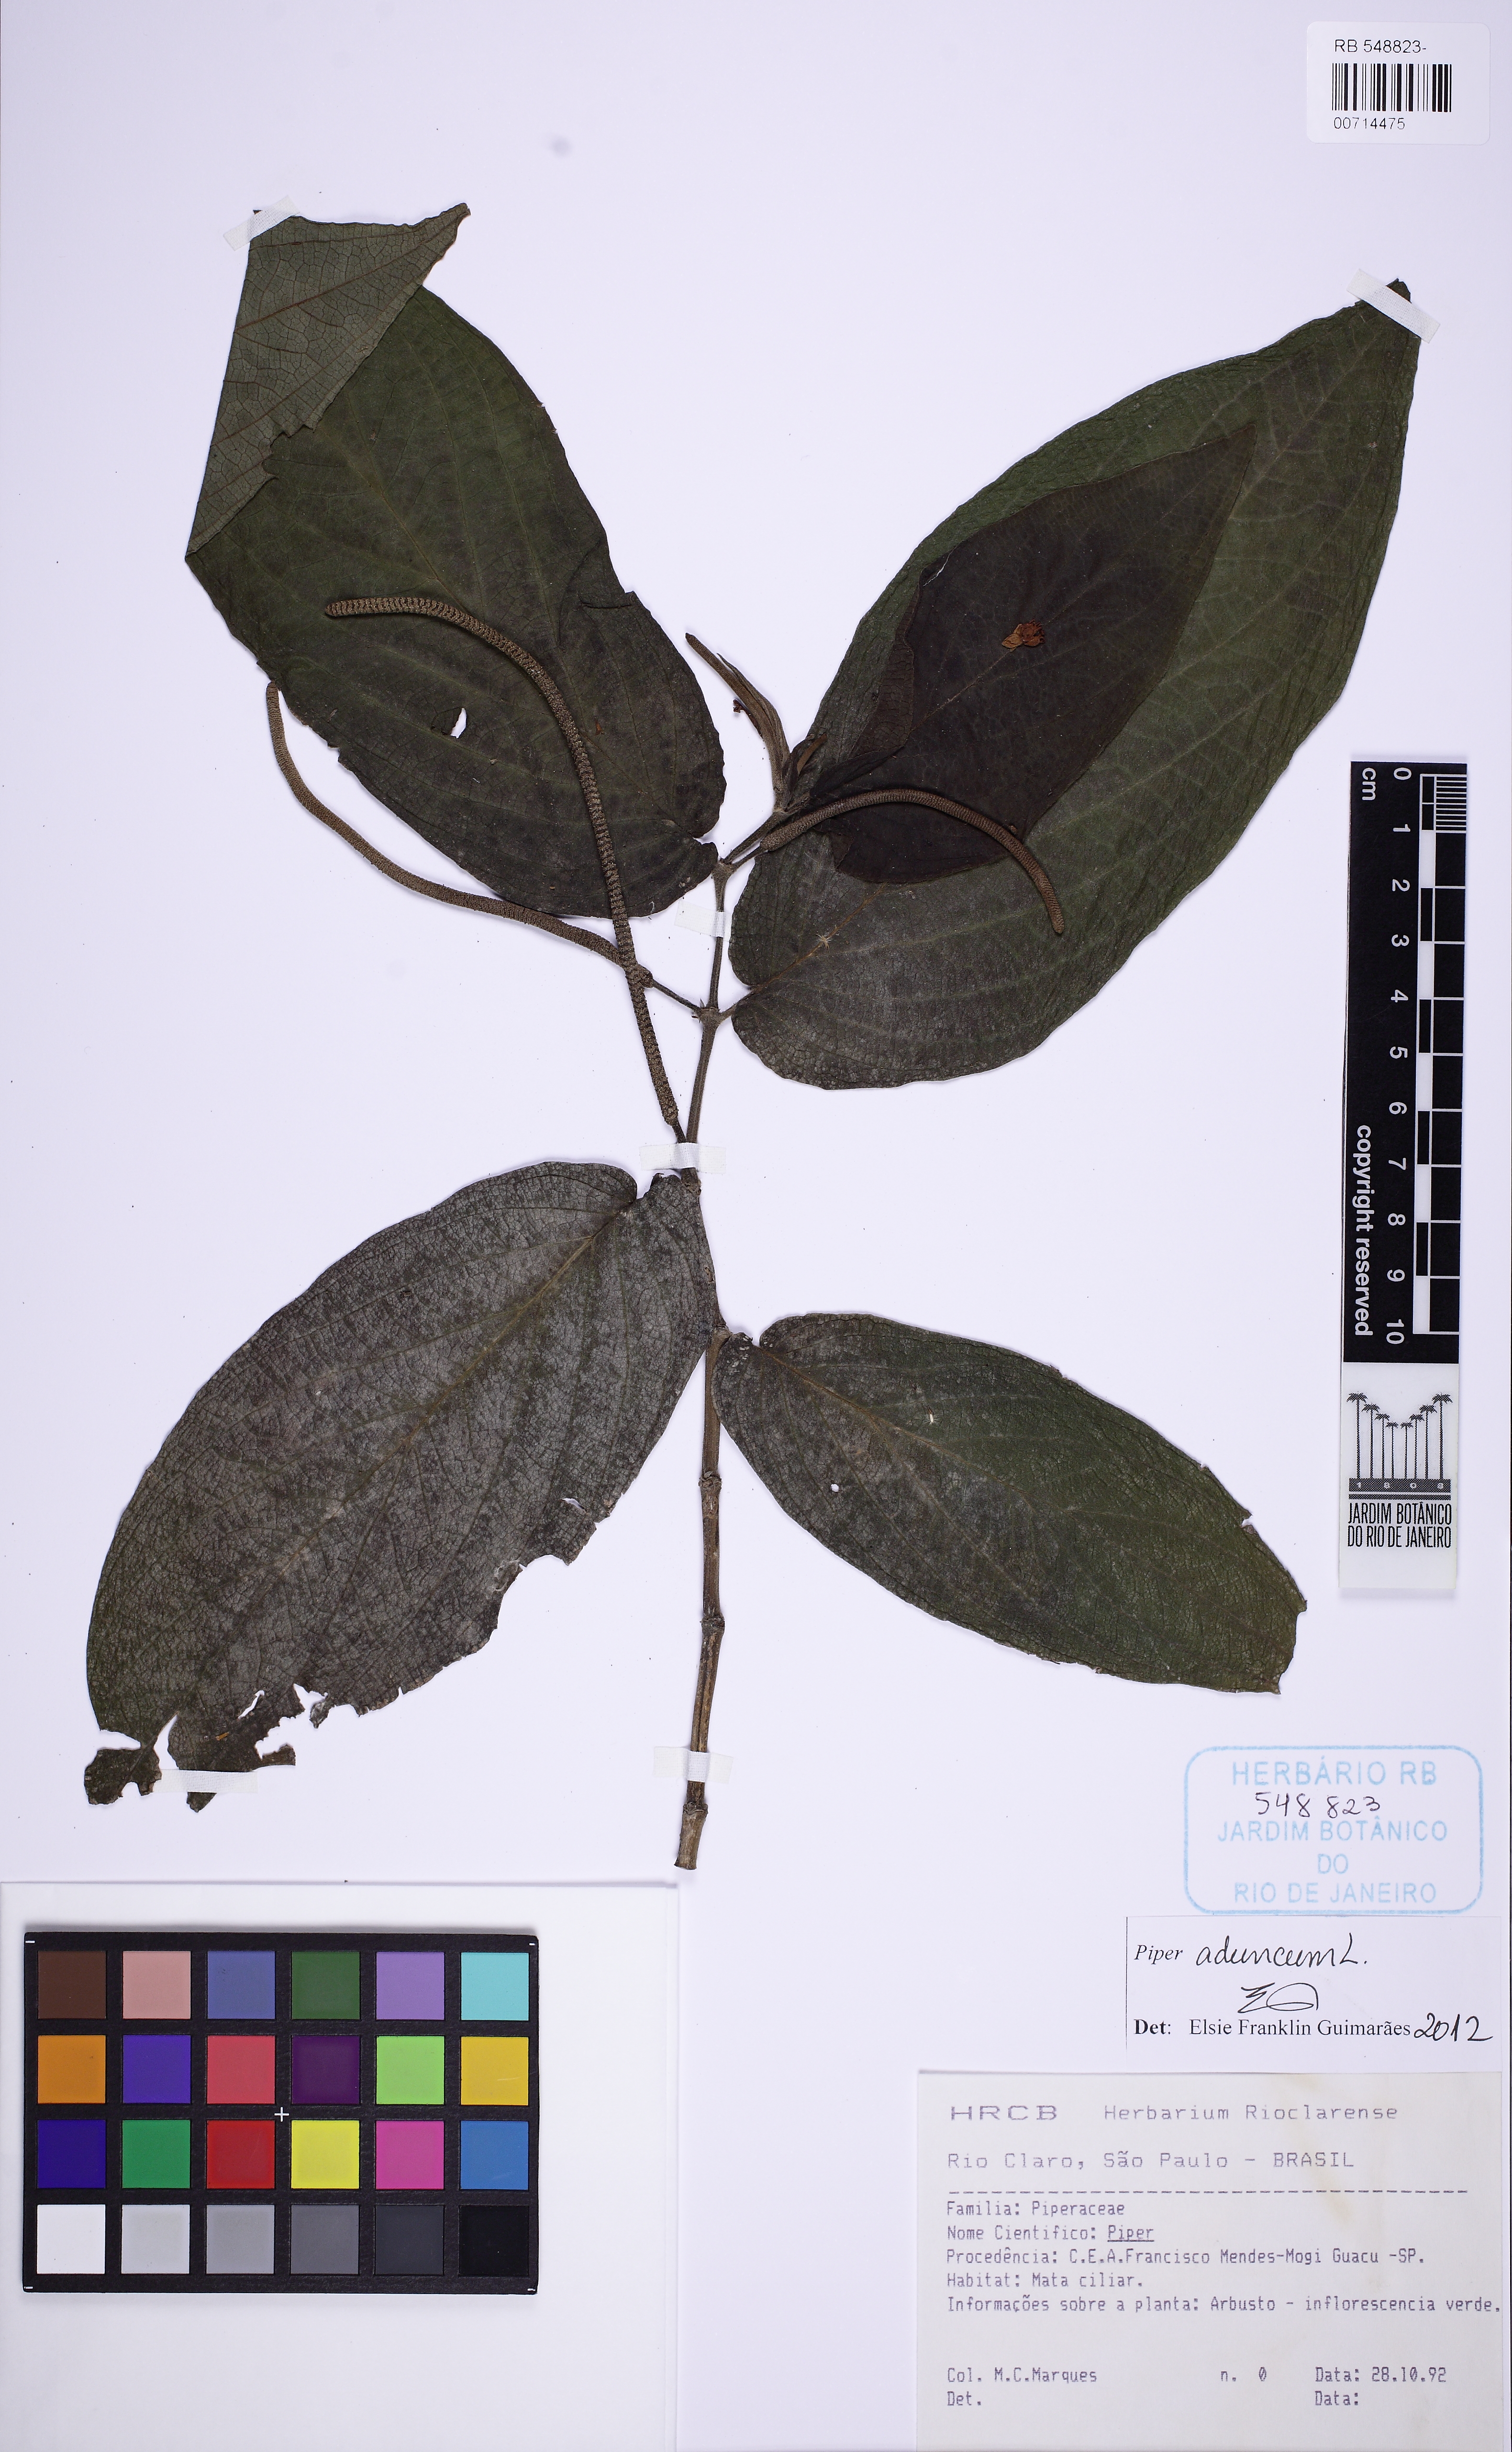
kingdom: Plantae
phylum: Tracheophyta
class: Magnoliopsida
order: Piperales
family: Piperaceae
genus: Piper
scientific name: Piper aduncum
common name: Spiked pepper
